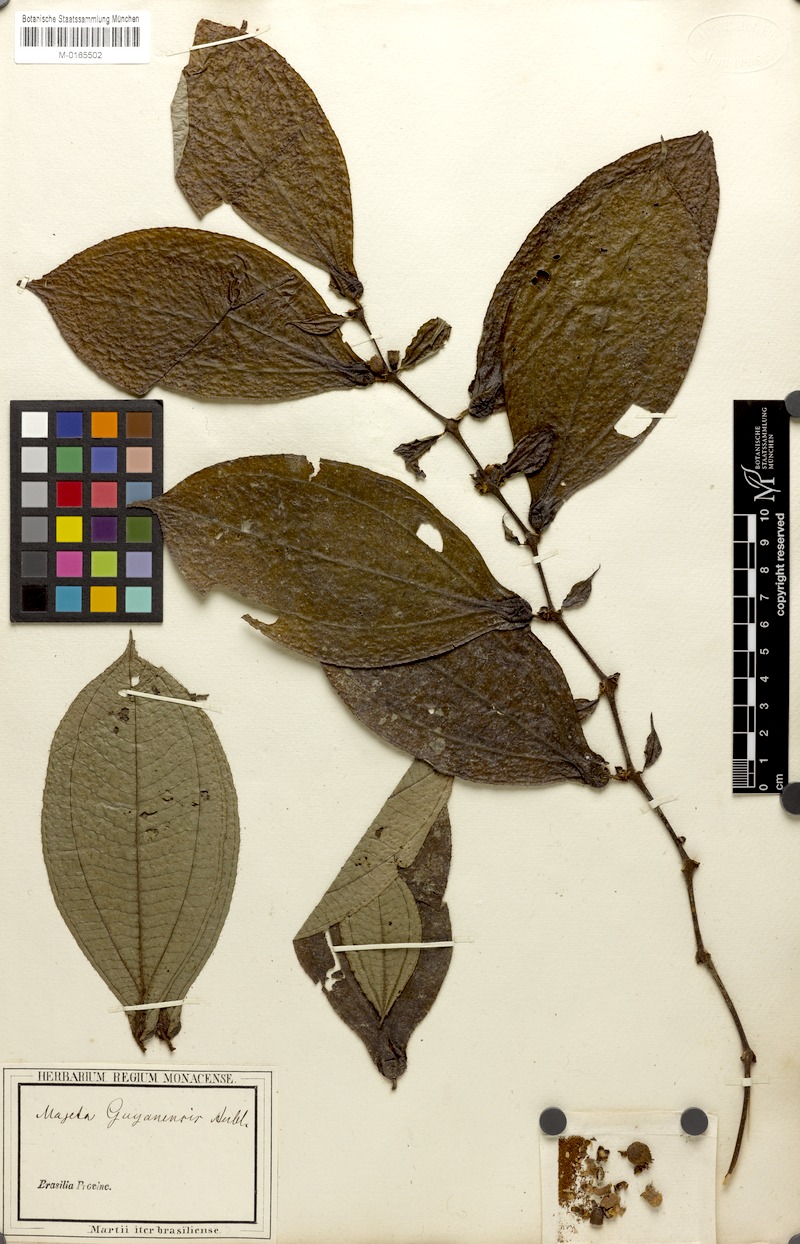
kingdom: Plantae
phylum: Tracheophyta
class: Magnoliopsida
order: Myrtales
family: Melastomataceae
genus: Miconia
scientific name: Miconia mayeta
